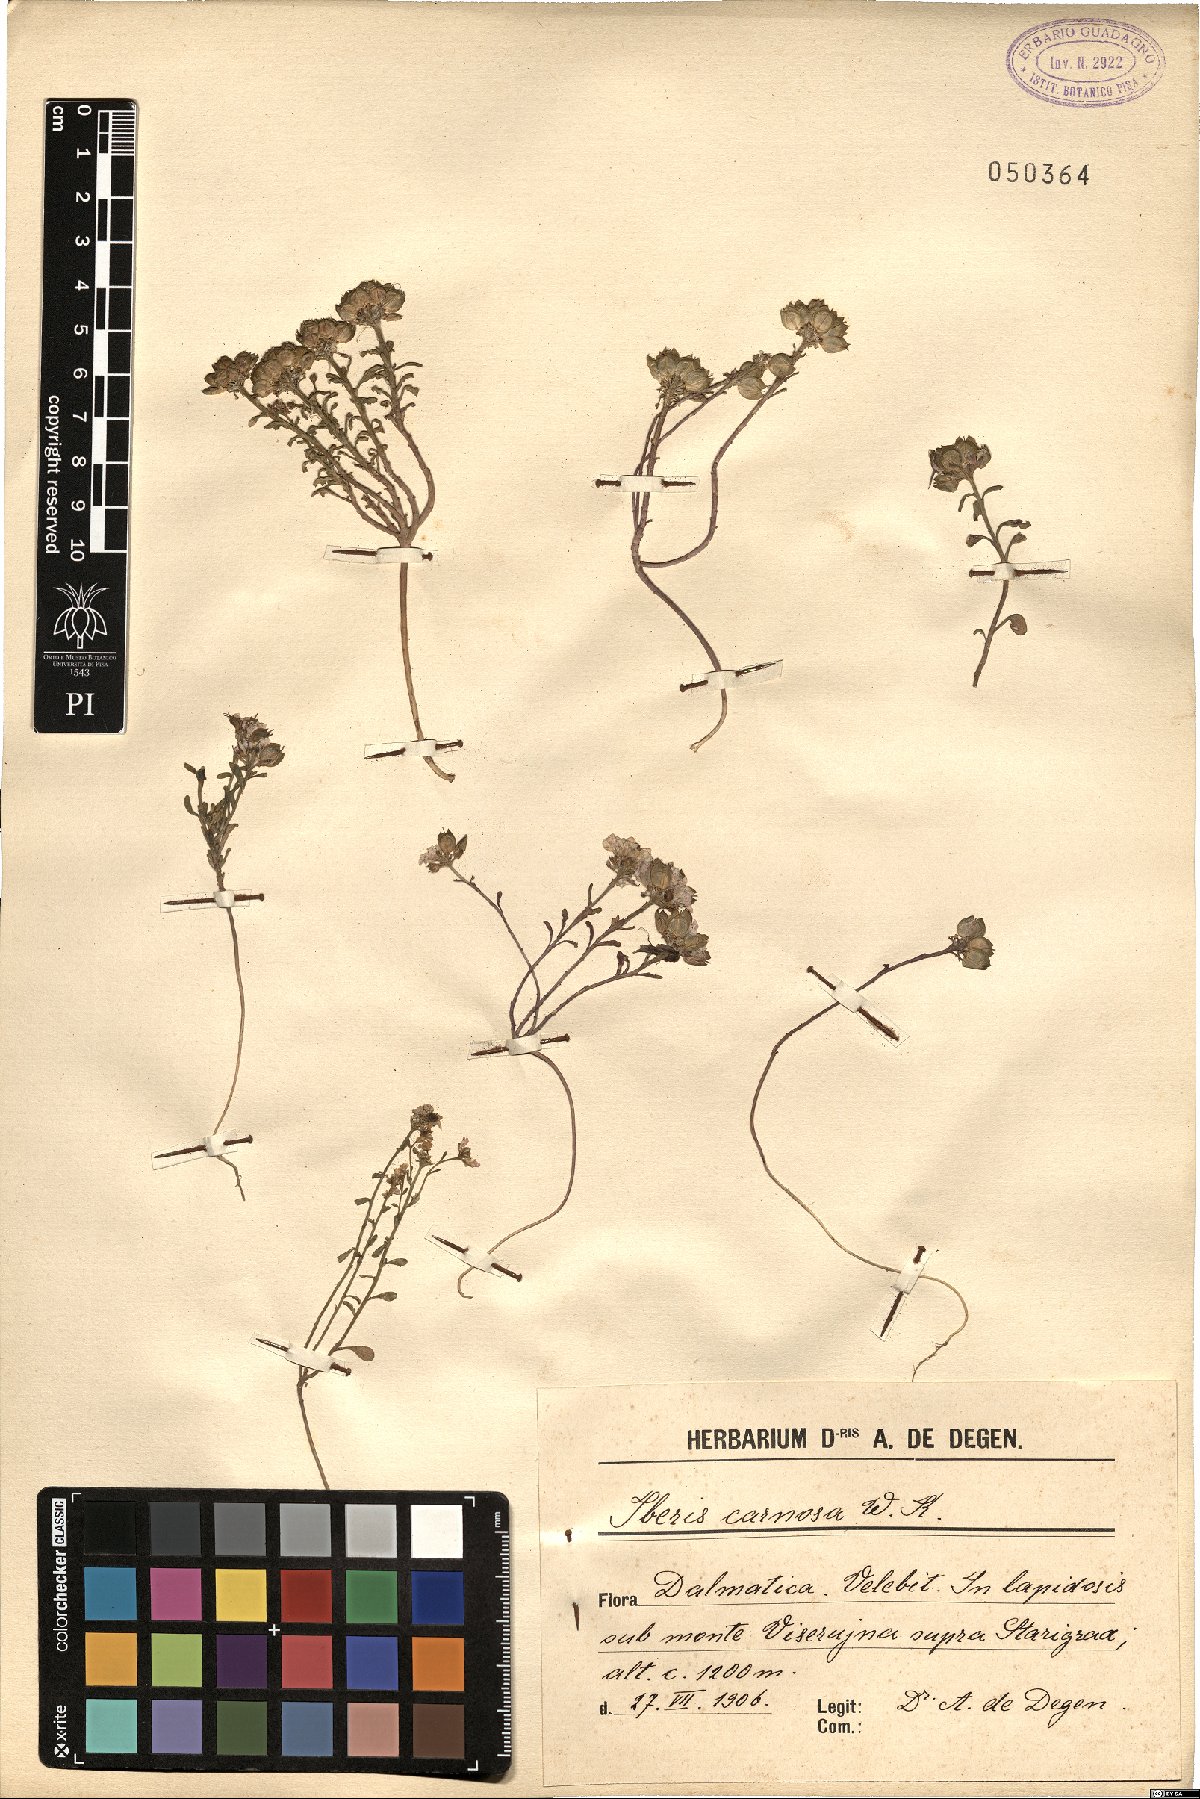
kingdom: Plantae
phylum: Tracheophyta
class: Magnoliopsida
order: Brassicales
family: Brassicaceae
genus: Iberis
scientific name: Iberis carnosa
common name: Pruit's candytuft
